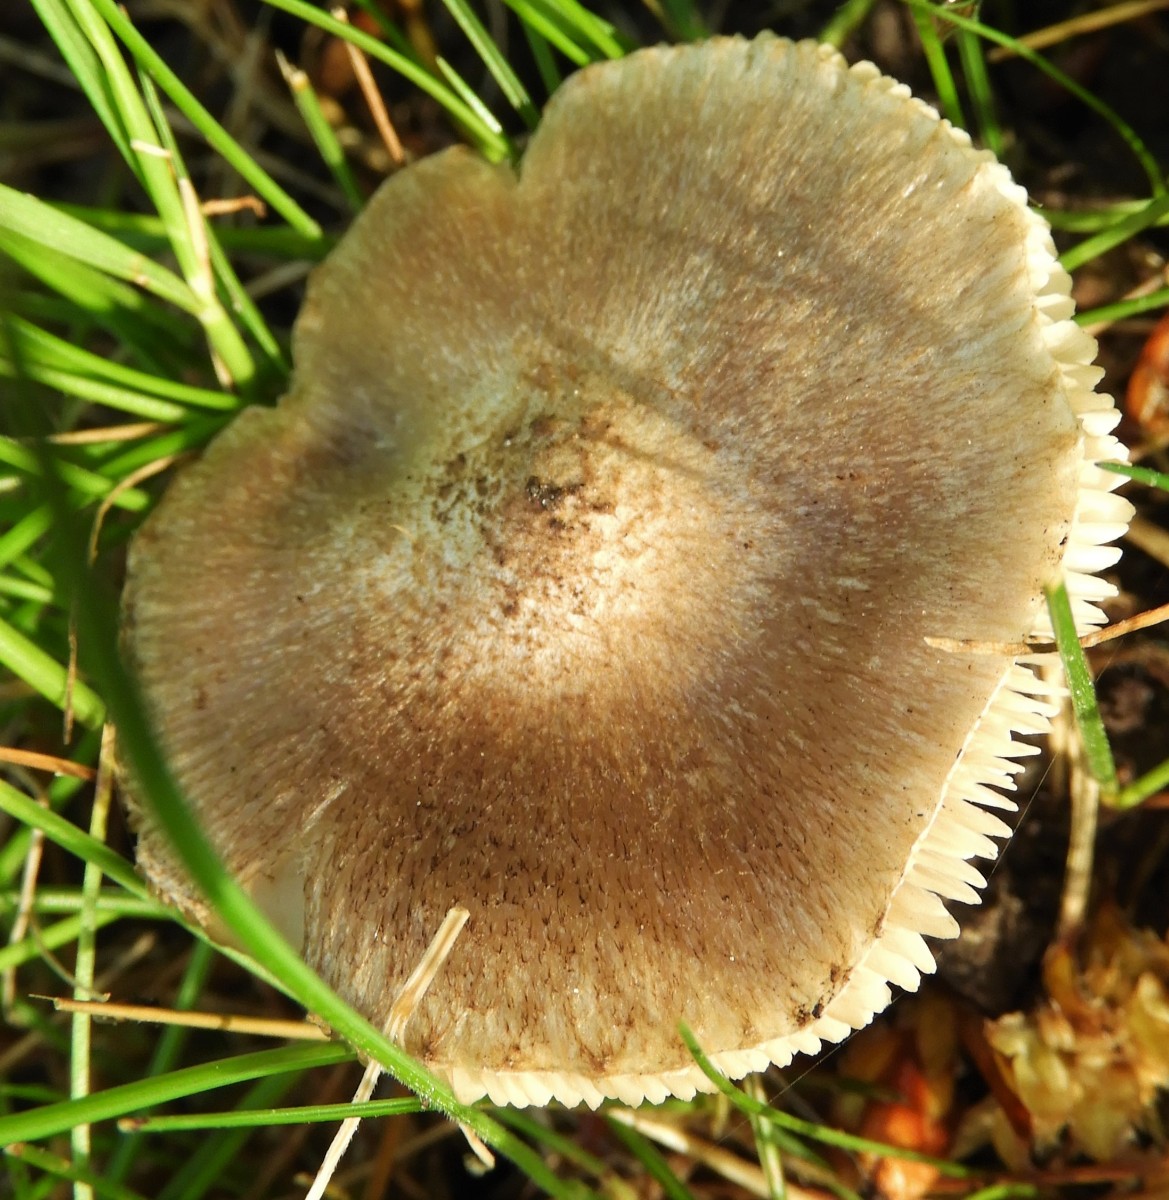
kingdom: Fungi
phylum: Basidiomycota
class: Agaricomycetes
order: Agaricales
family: Tricholomataceae
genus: Tricholoma
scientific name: Tricholoma scalpturatum
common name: gulplettet ridderhat
